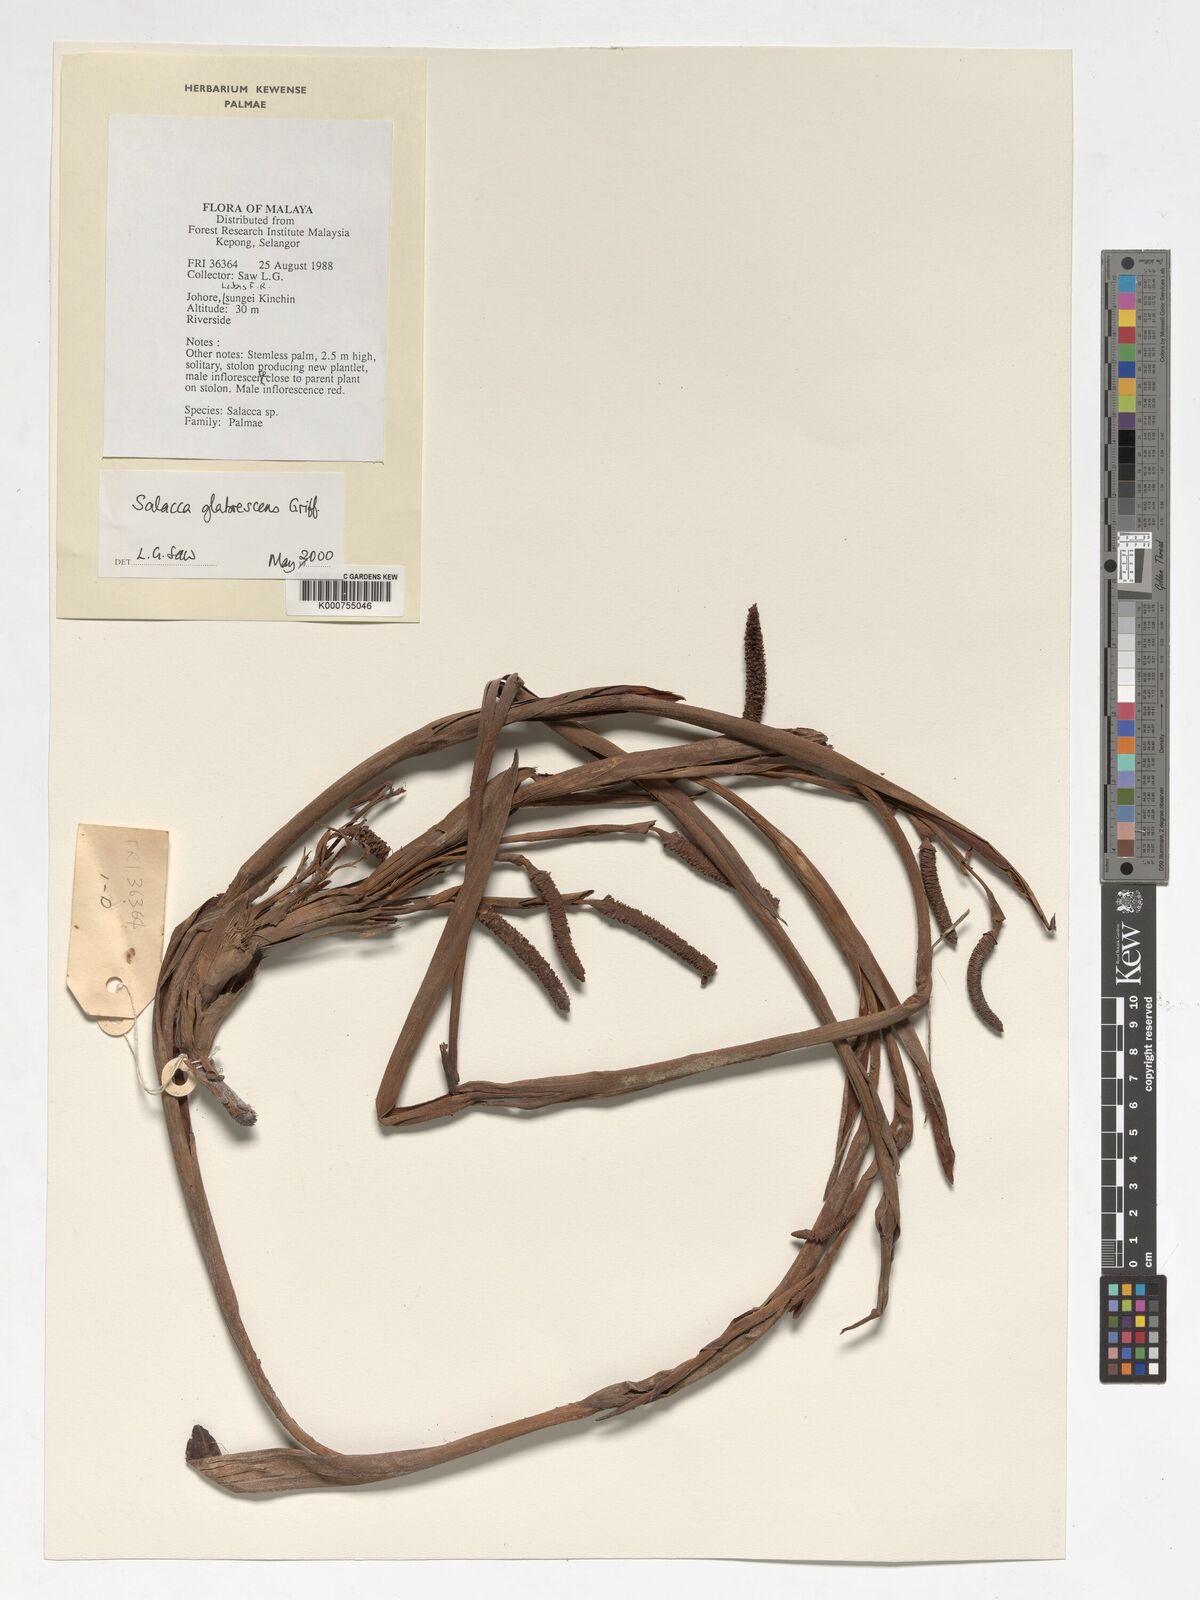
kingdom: Plantae
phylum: Tracheophyta
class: Liliopsida
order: Arecales
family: Arecaceae
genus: Salacca
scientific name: Salacca glabrescens
